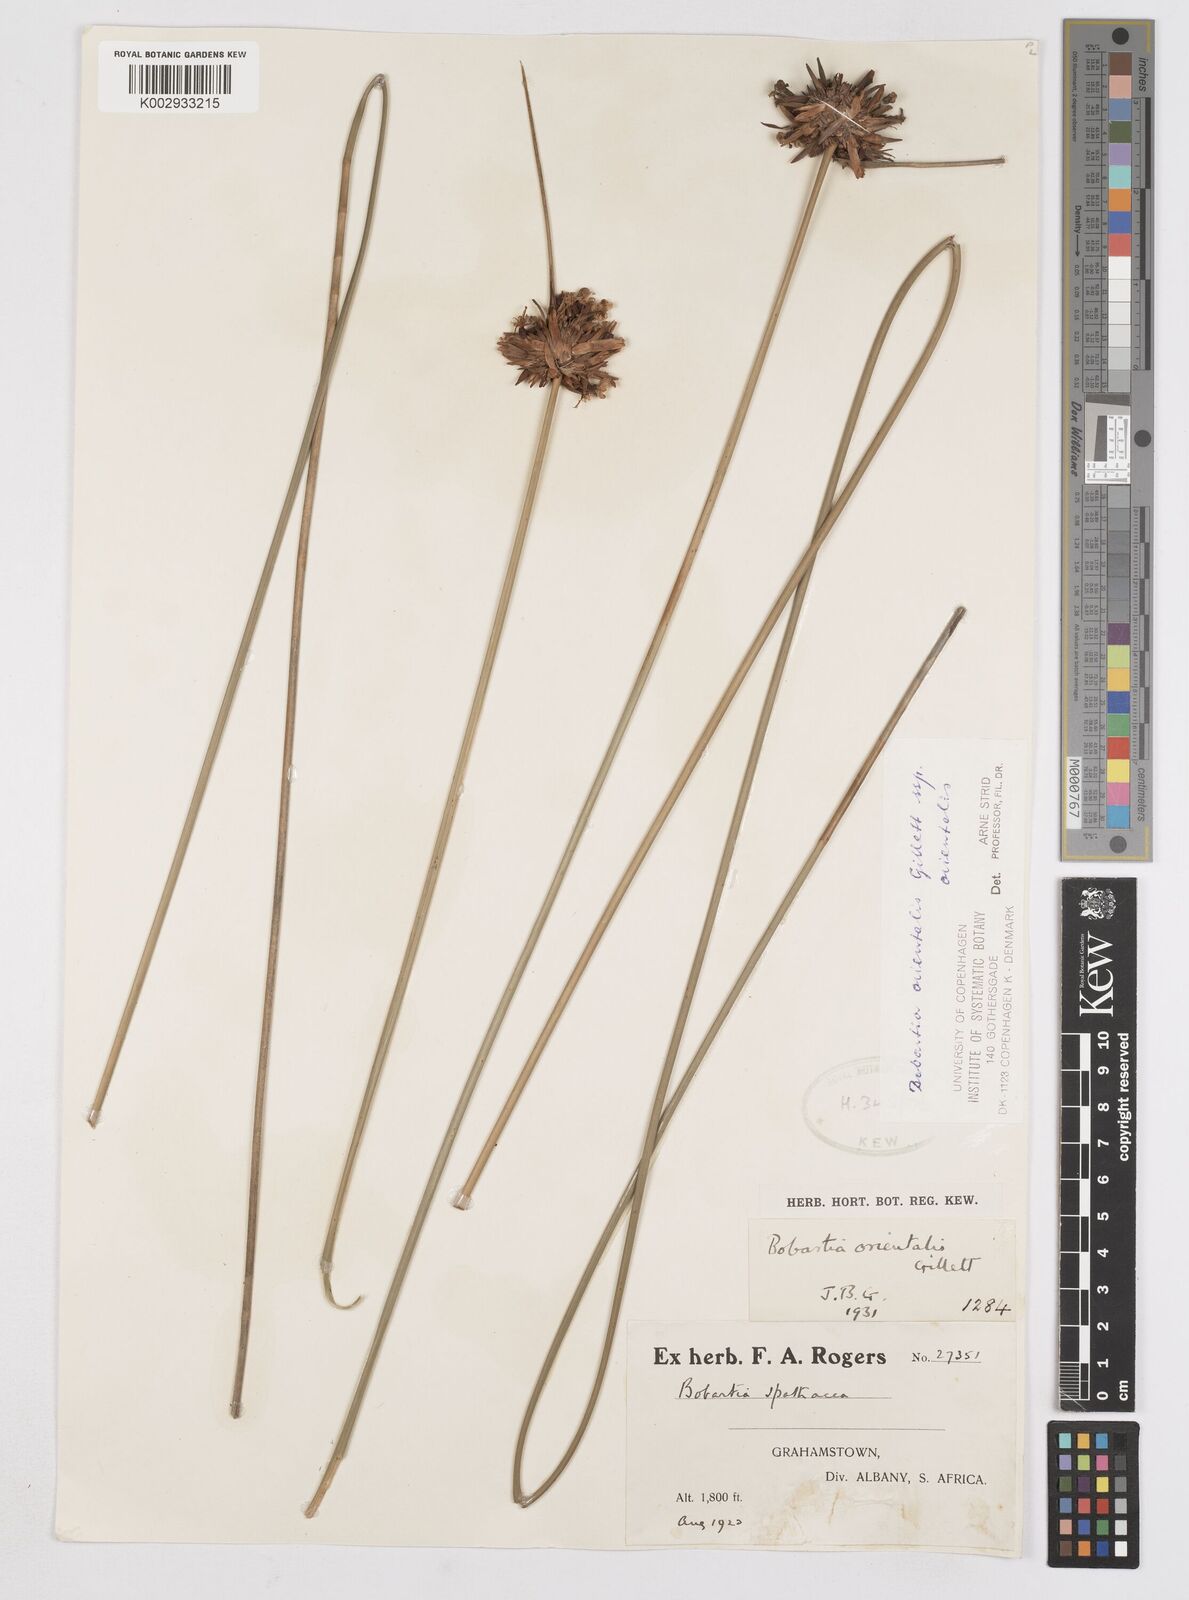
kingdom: Plantae
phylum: Tracheophyta
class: Liliopsida
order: Asparagales
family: Iridaceae
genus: Bobartia
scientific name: Bobartia orientalis
